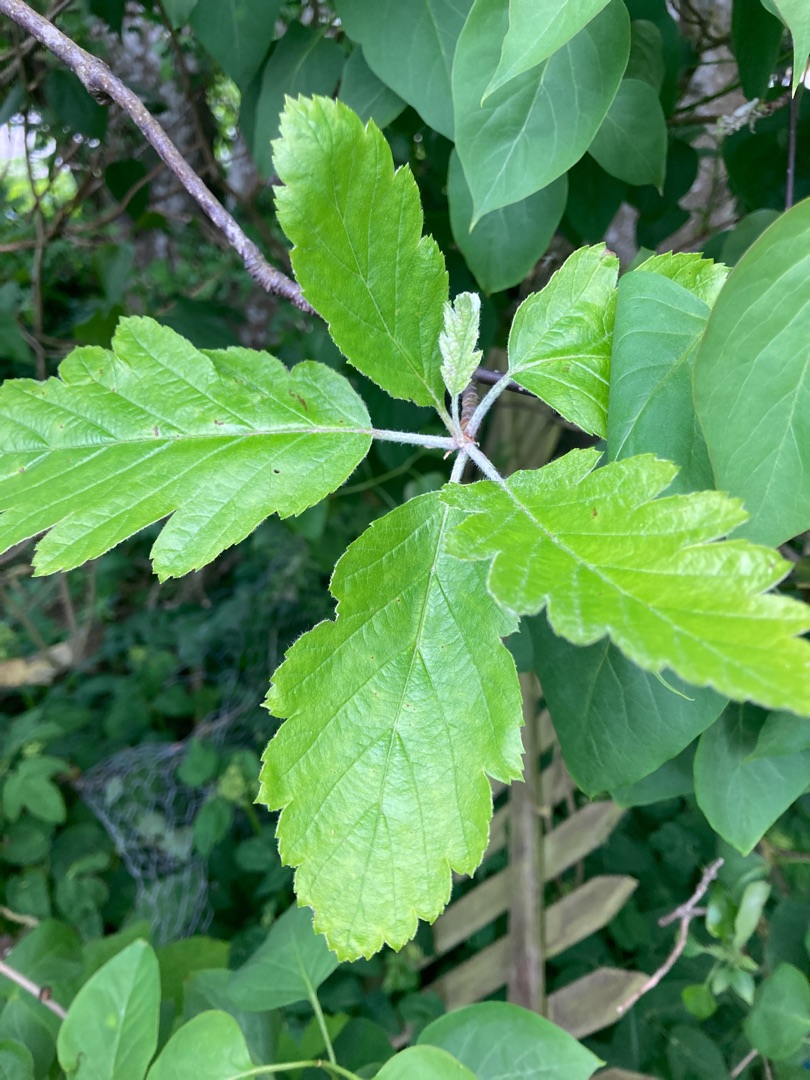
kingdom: Plantae
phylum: Tracheophyta
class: Magnoliopsida
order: Rosales
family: Rosaceae
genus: Scandosorbus
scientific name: Scandosorbus intermedia
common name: Selje-røn
